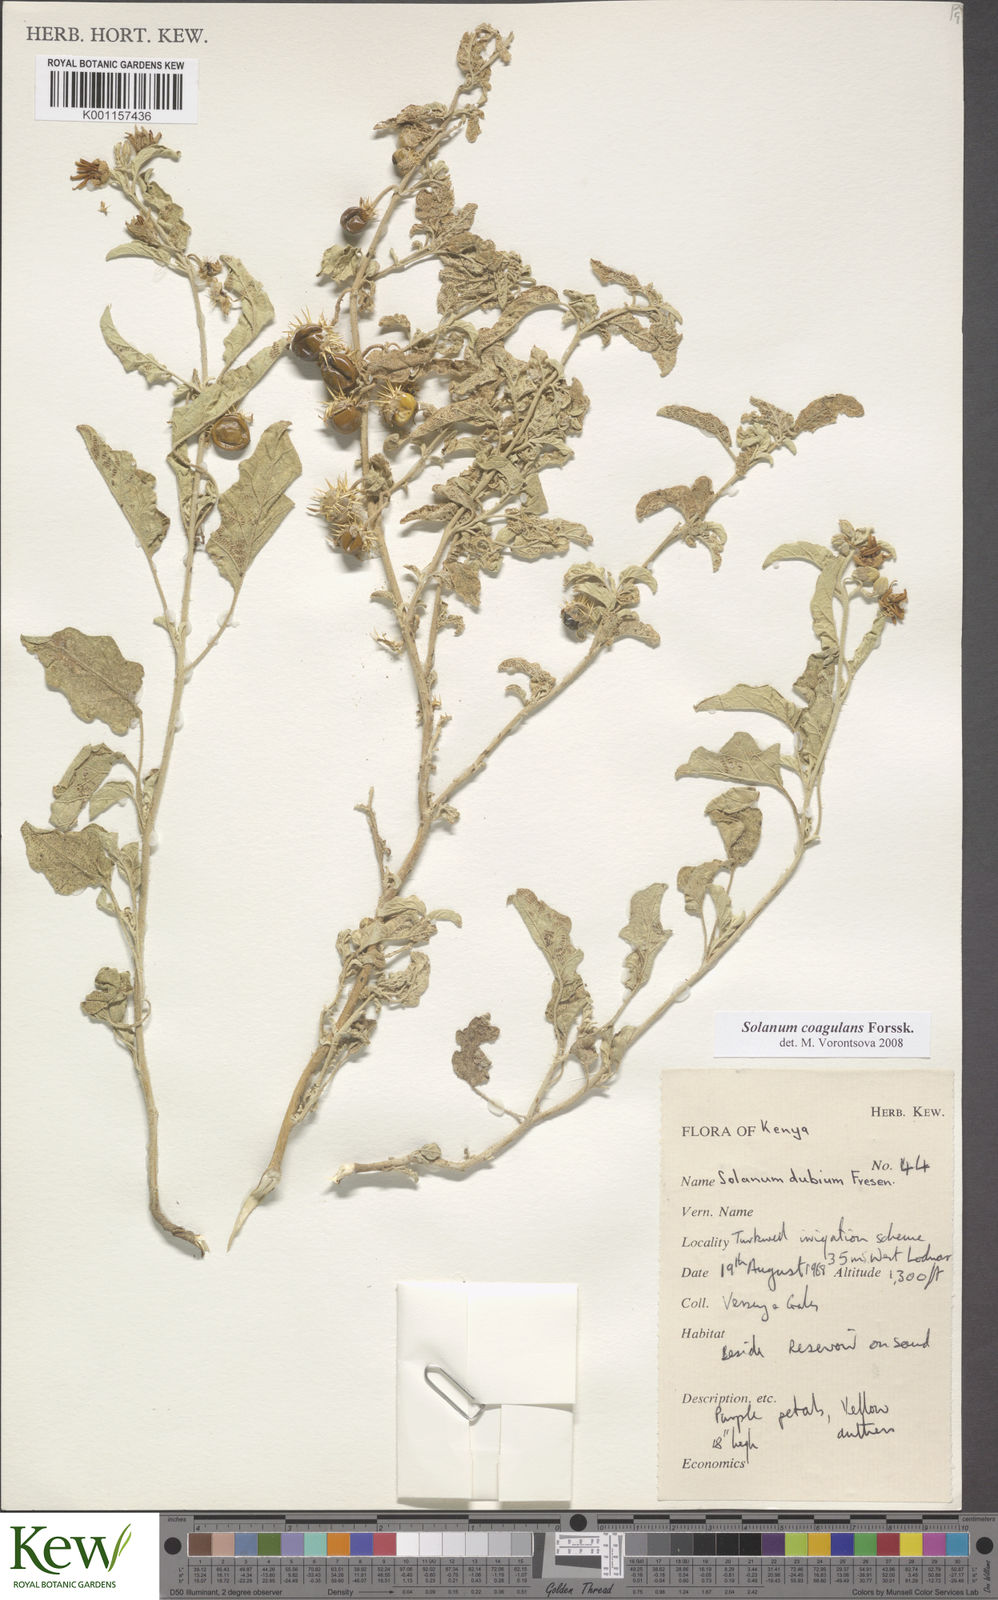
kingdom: Plantae
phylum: Tracheophyta
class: Magnoliopsida
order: Solanales
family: Solanaceae
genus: Solanum
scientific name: Solanum coagulans
